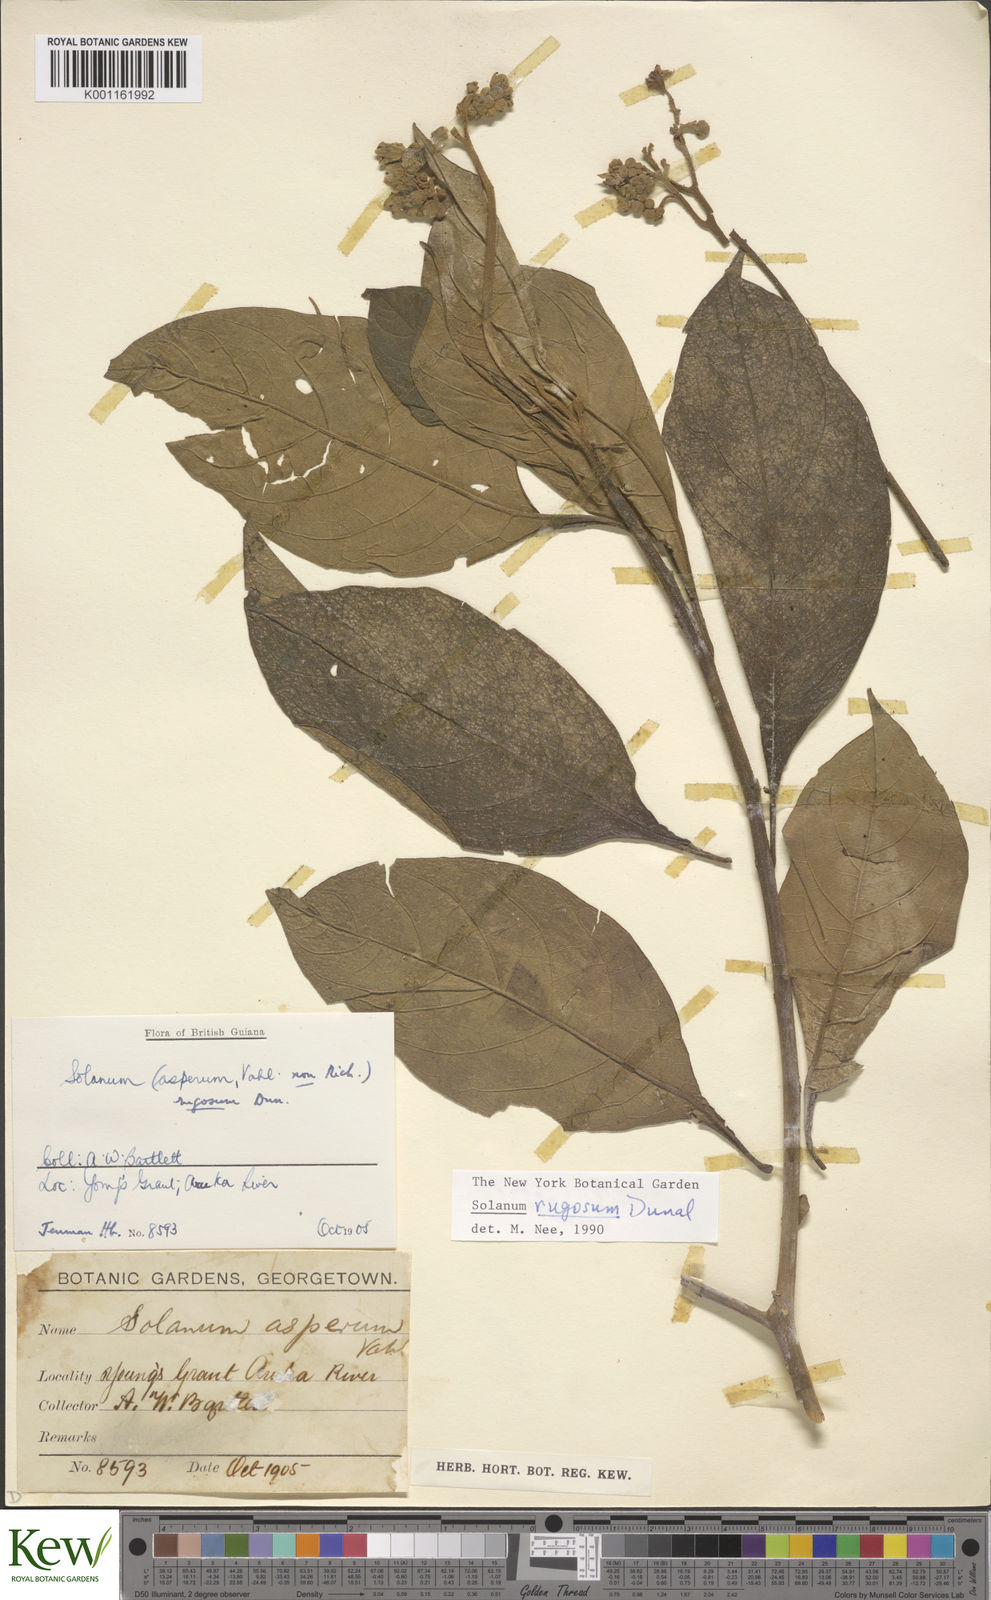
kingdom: Plantae
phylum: Tracheophyta
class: Magnoliopsida
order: Solanales
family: Solanaceae
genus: Solanum
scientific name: Solanum rugosum
